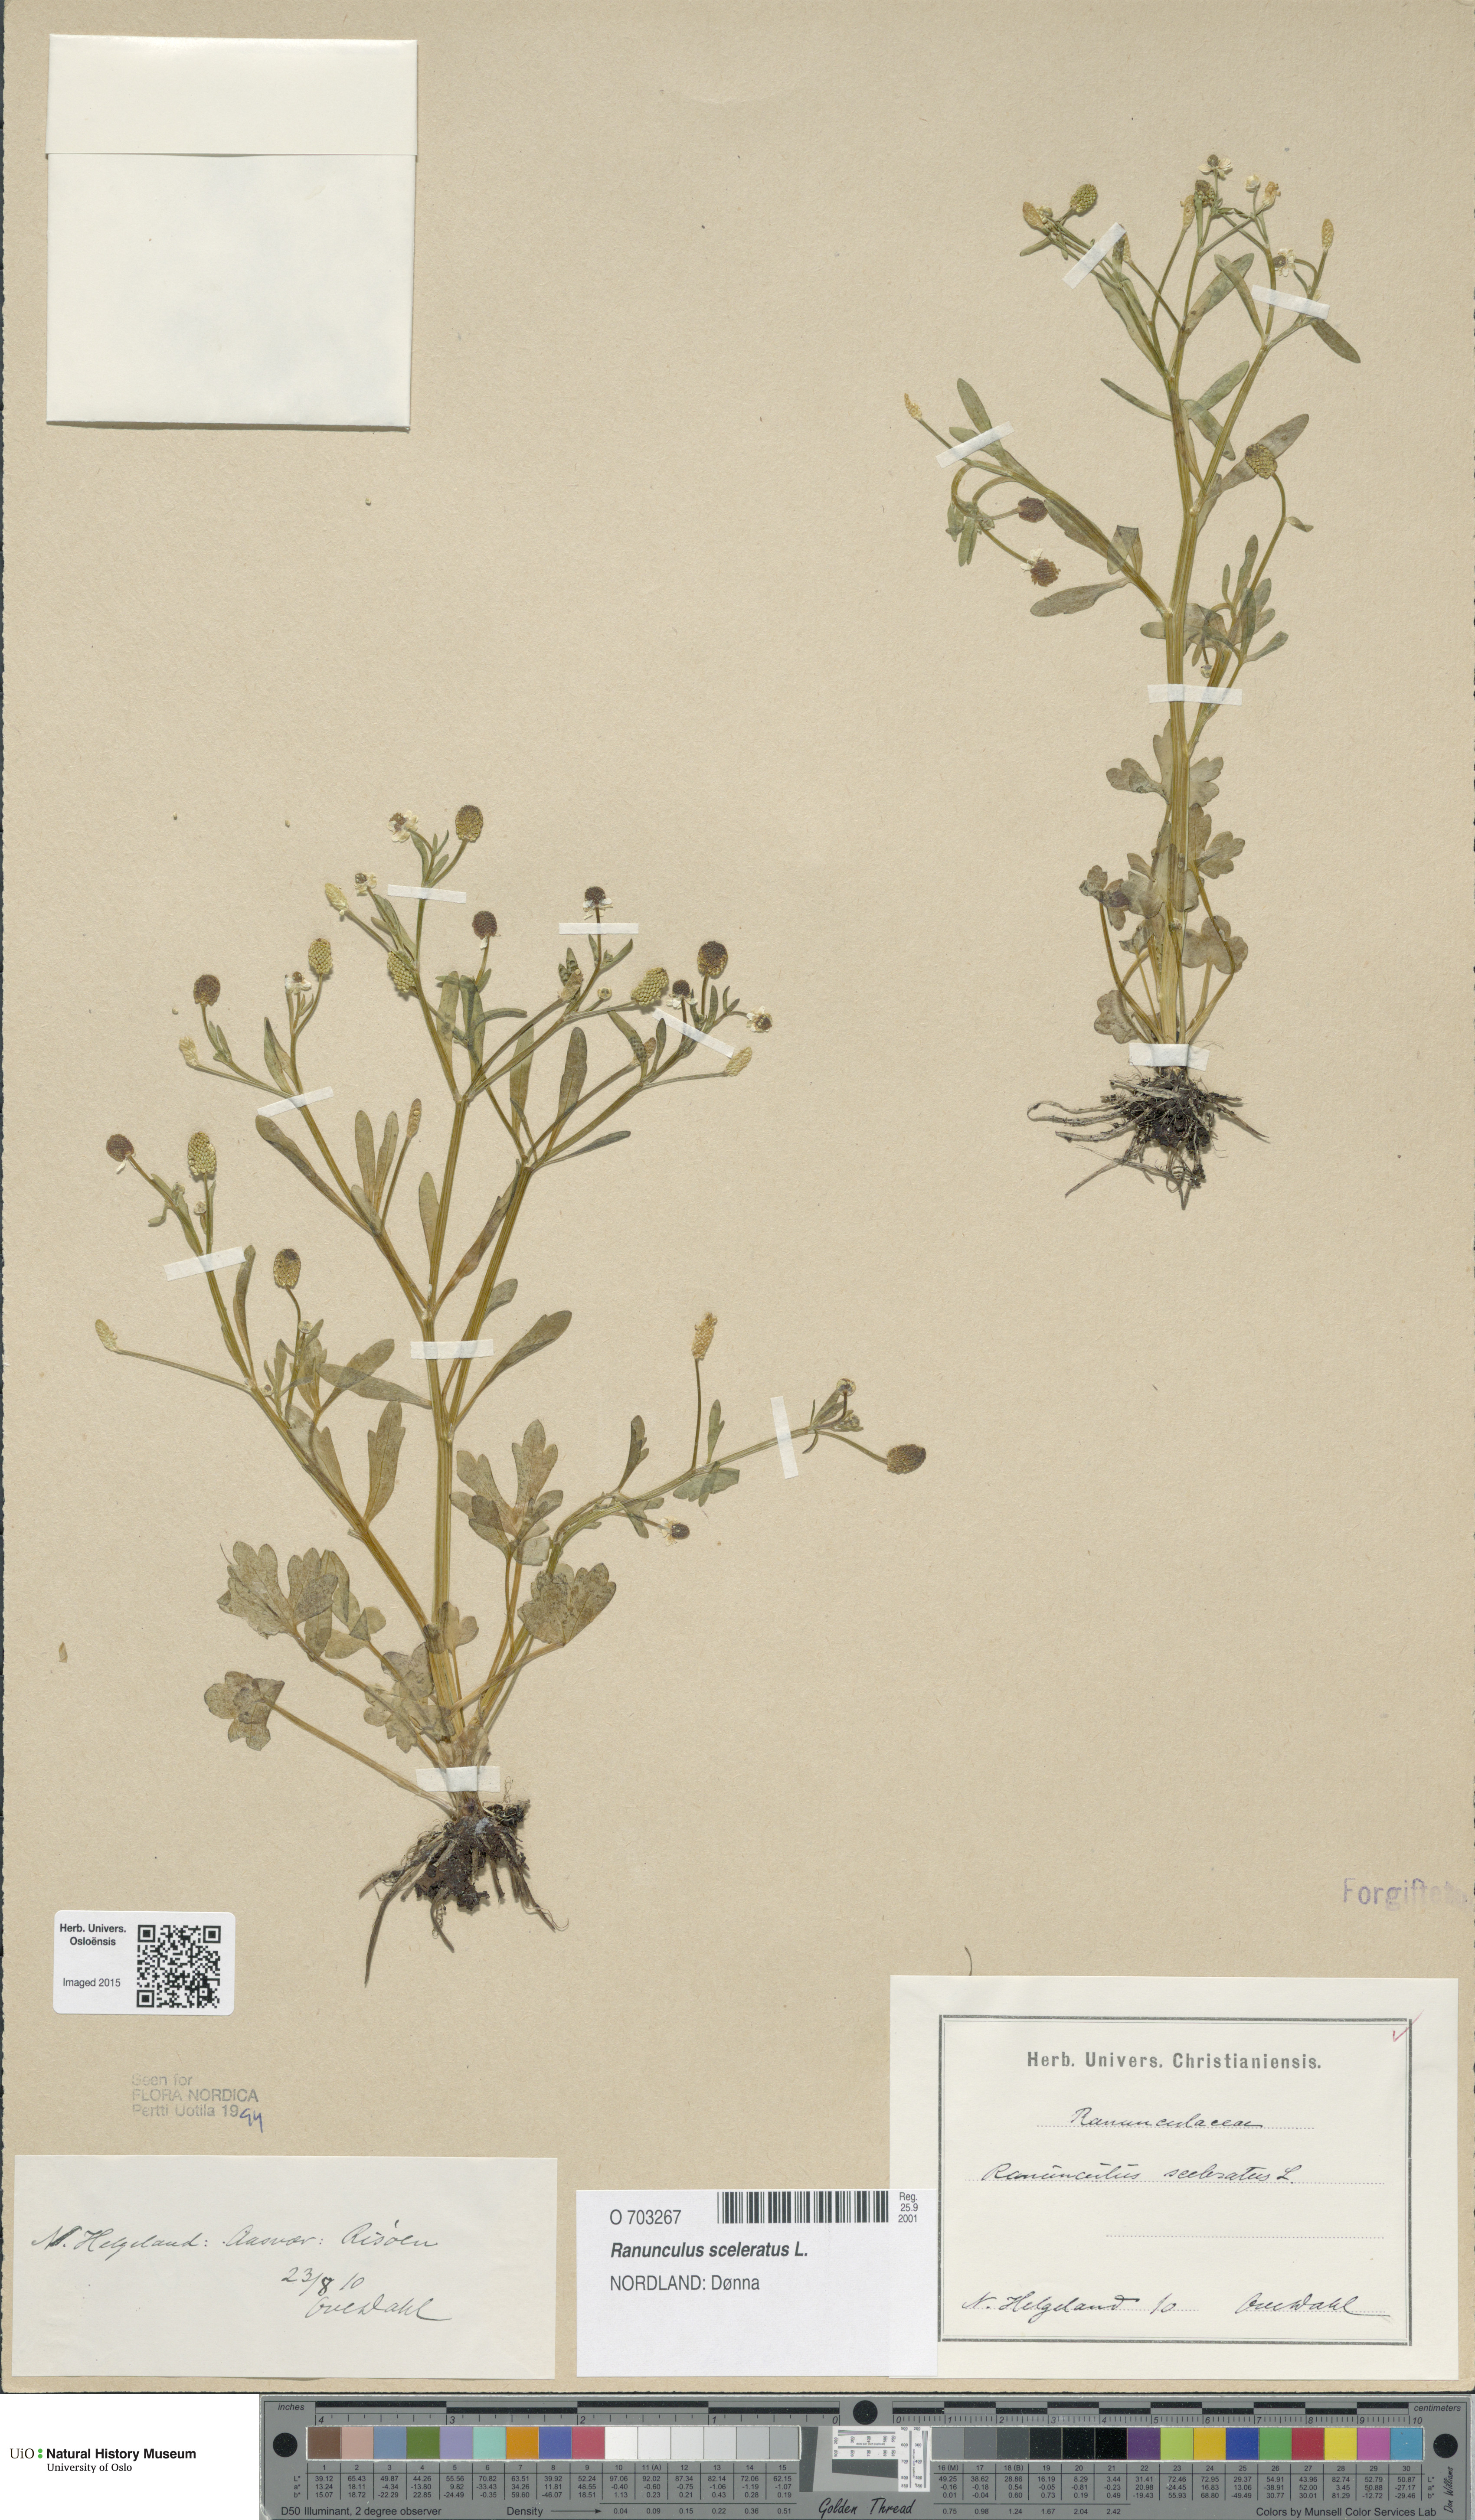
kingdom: Plantae
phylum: Tracheophyta
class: Magnoliopsida
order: Ranunculales
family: Ranunculaceae
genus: Ranunculus
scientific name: Ranunculus sceleratus
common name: Celery-leaved buttercup
